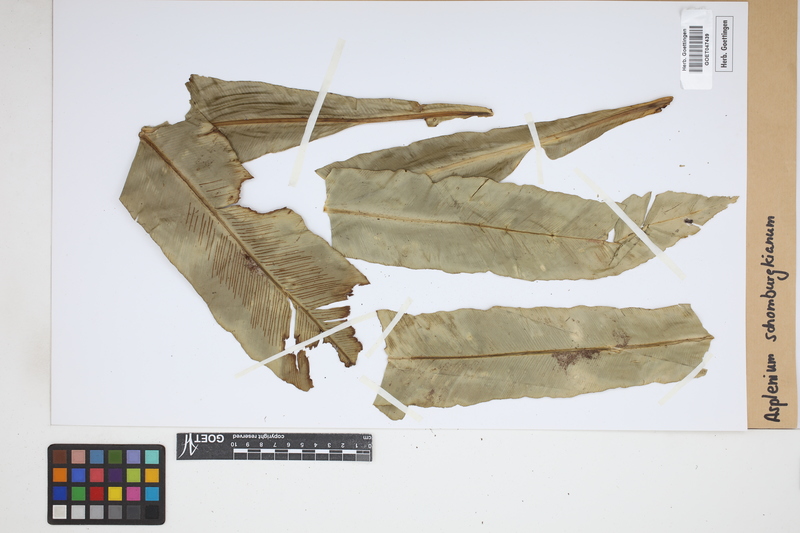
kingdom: Plantae
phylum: Tracheophyta
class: Polypodiopsida
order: Polypodiales
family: Aspleniaceae
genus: Asplenium
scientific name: Asplenium serratum
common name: Wild birdnest fern
